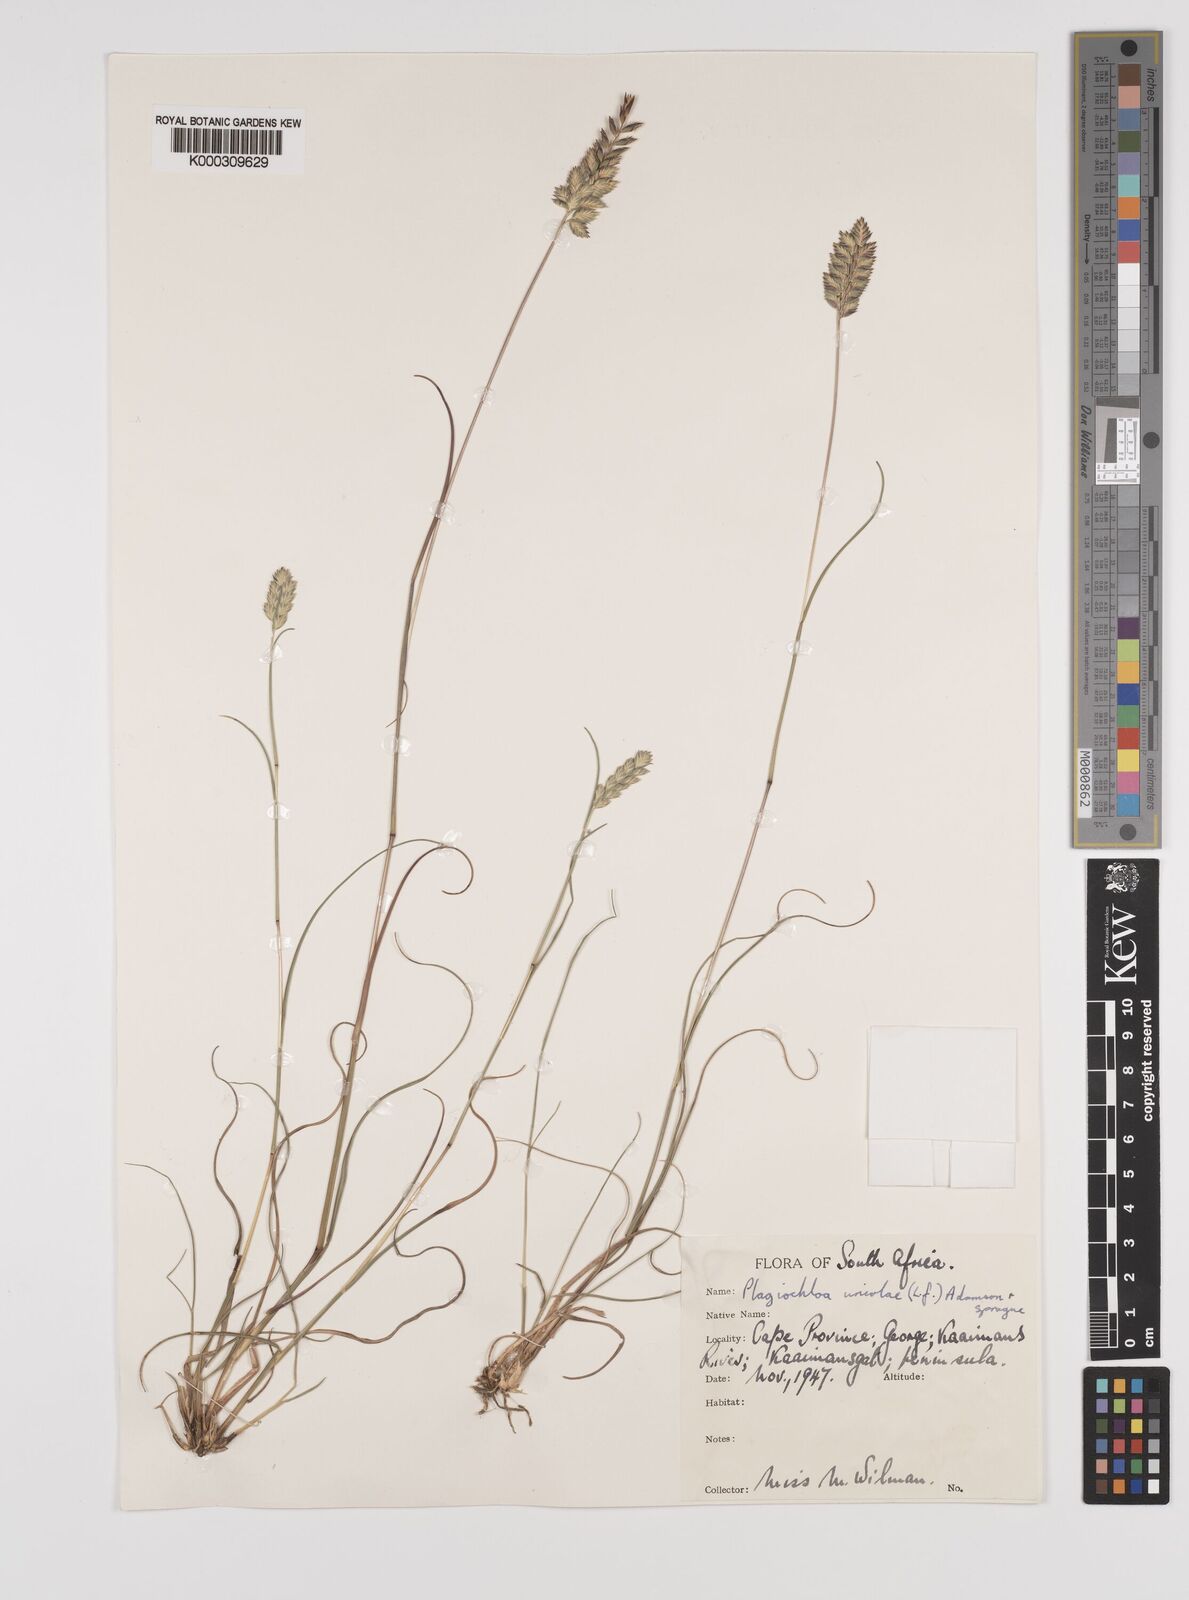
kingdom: Plantae
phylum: Tracheophyta
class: Liliopsida
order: Poales
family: Poaceae
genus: Tribolium
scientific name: Tribolium uniolae
